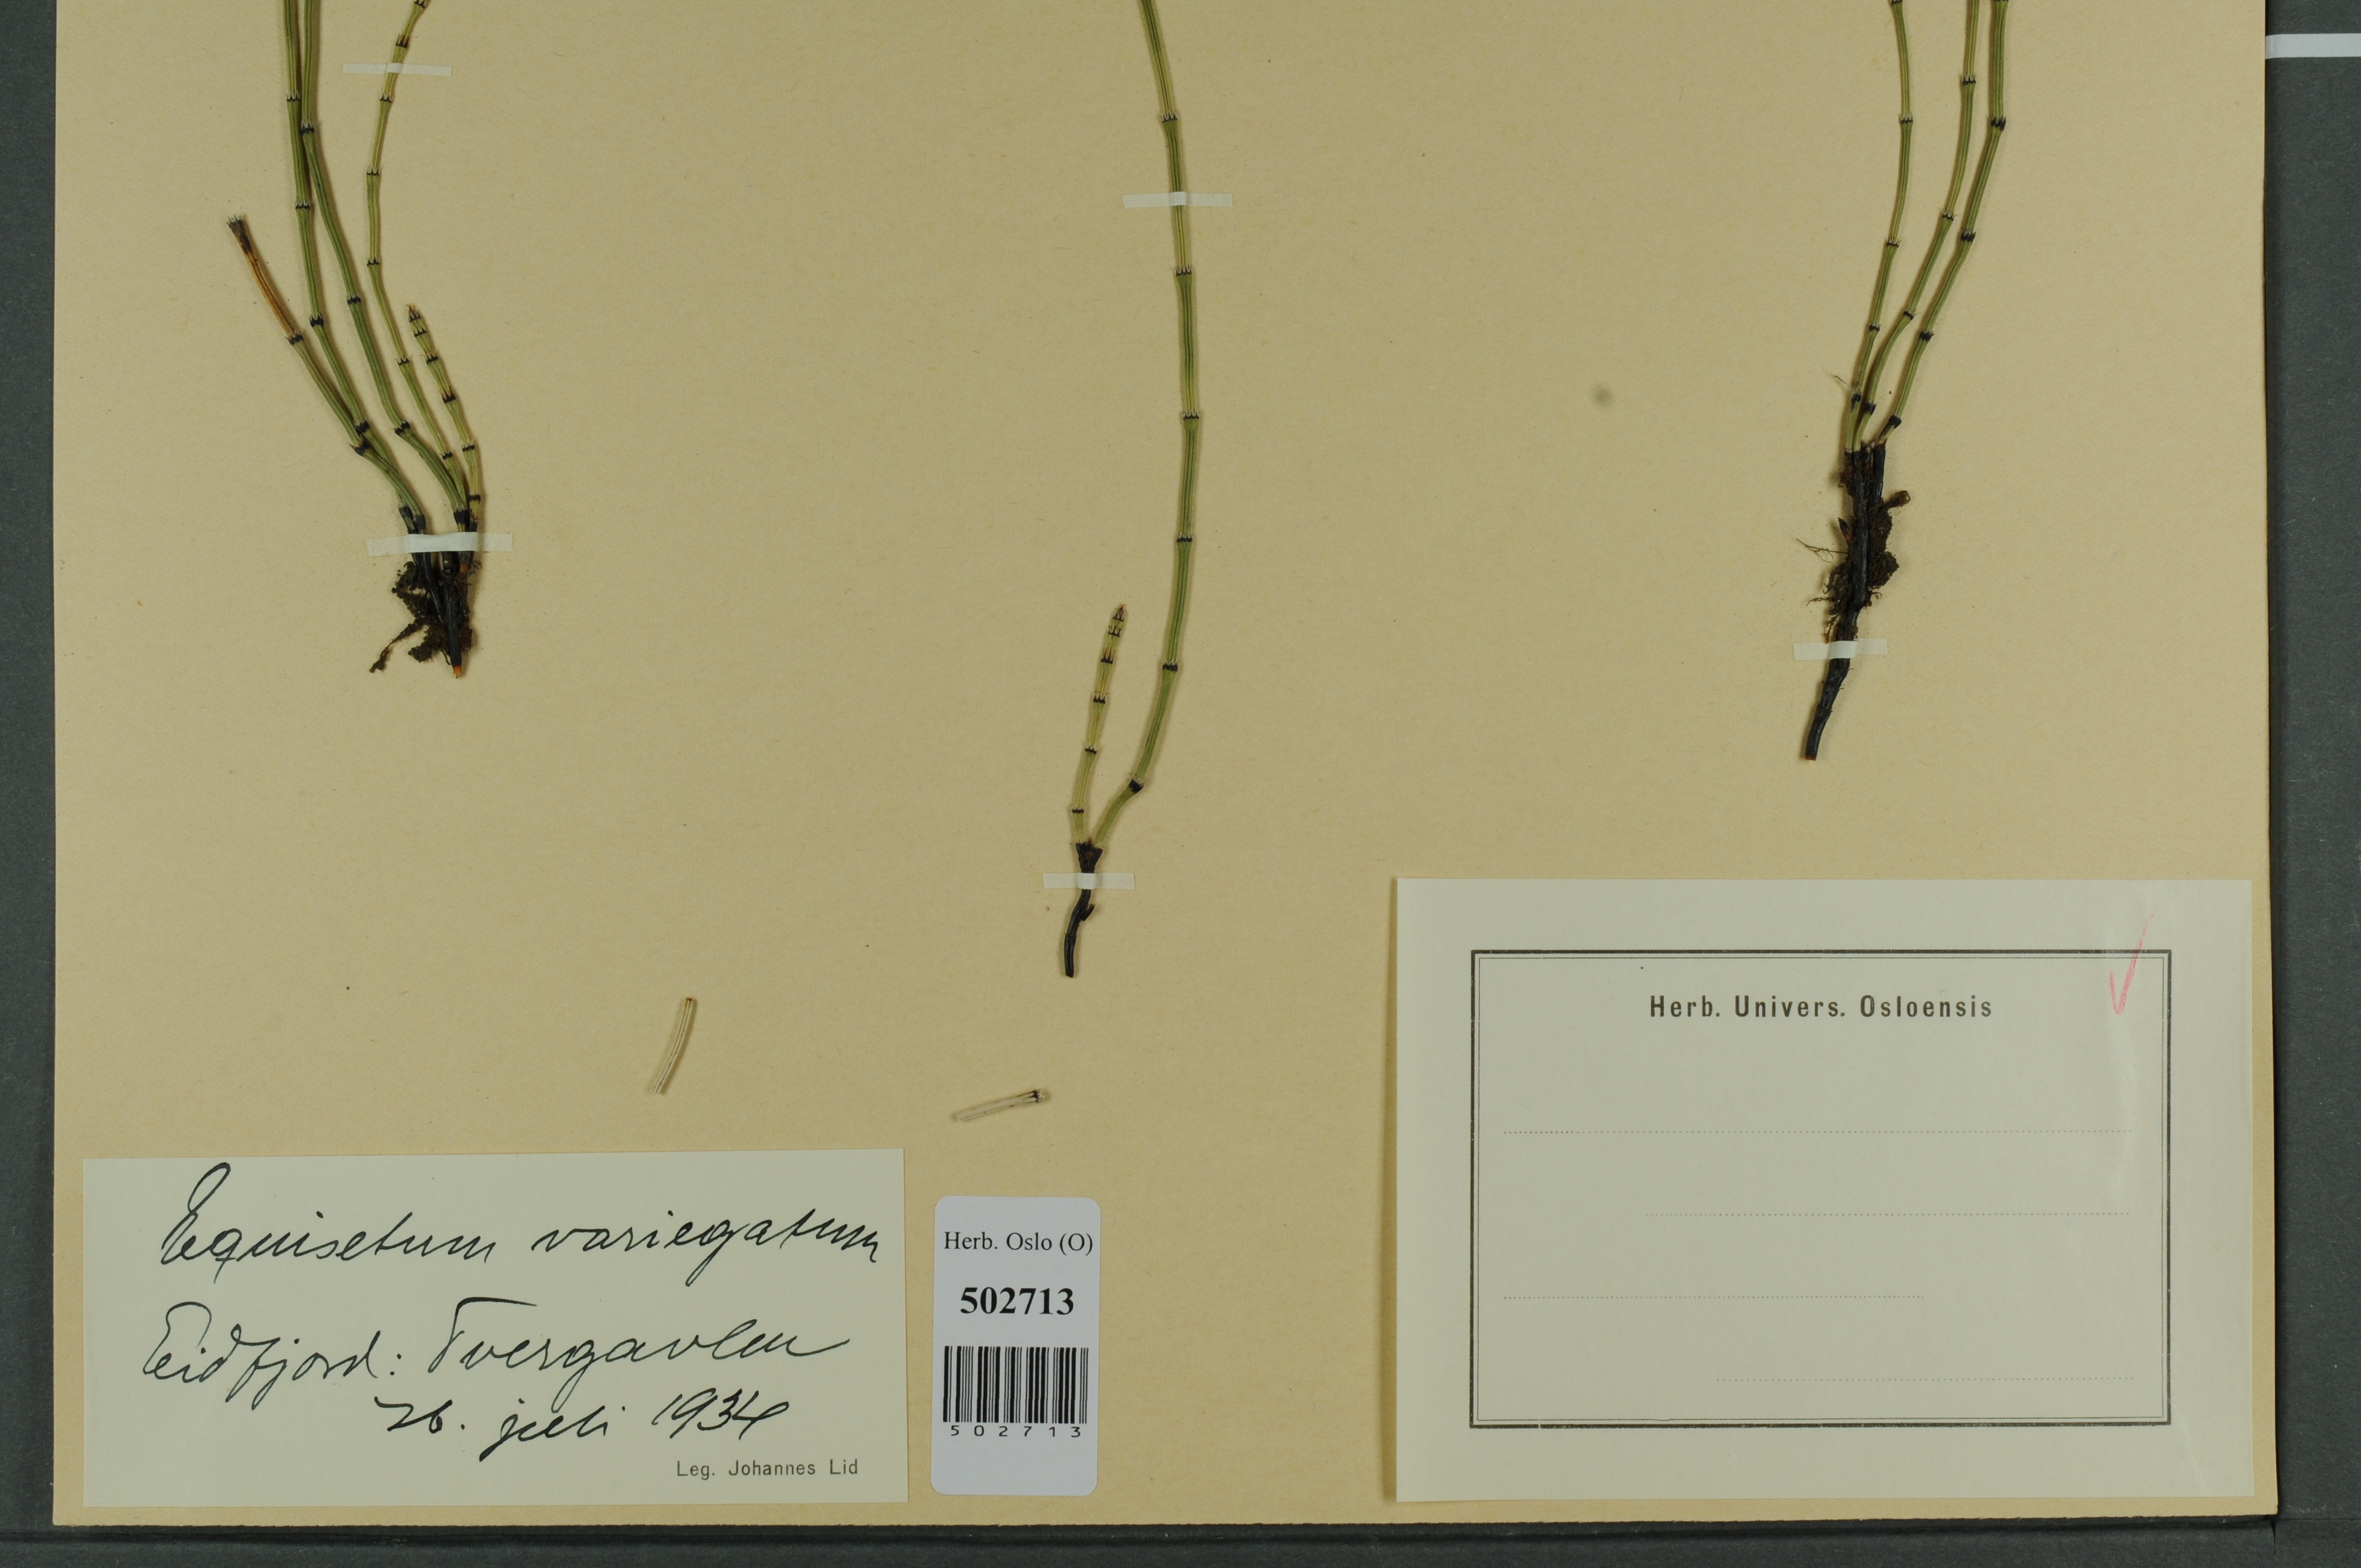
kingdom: Plantae
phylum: Tracheophyta
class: Polypodiopsida
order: Equisetales
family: Equisetaceae
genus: Equisetum
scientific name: Equisetum variegatum
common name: Variegated horsetail
